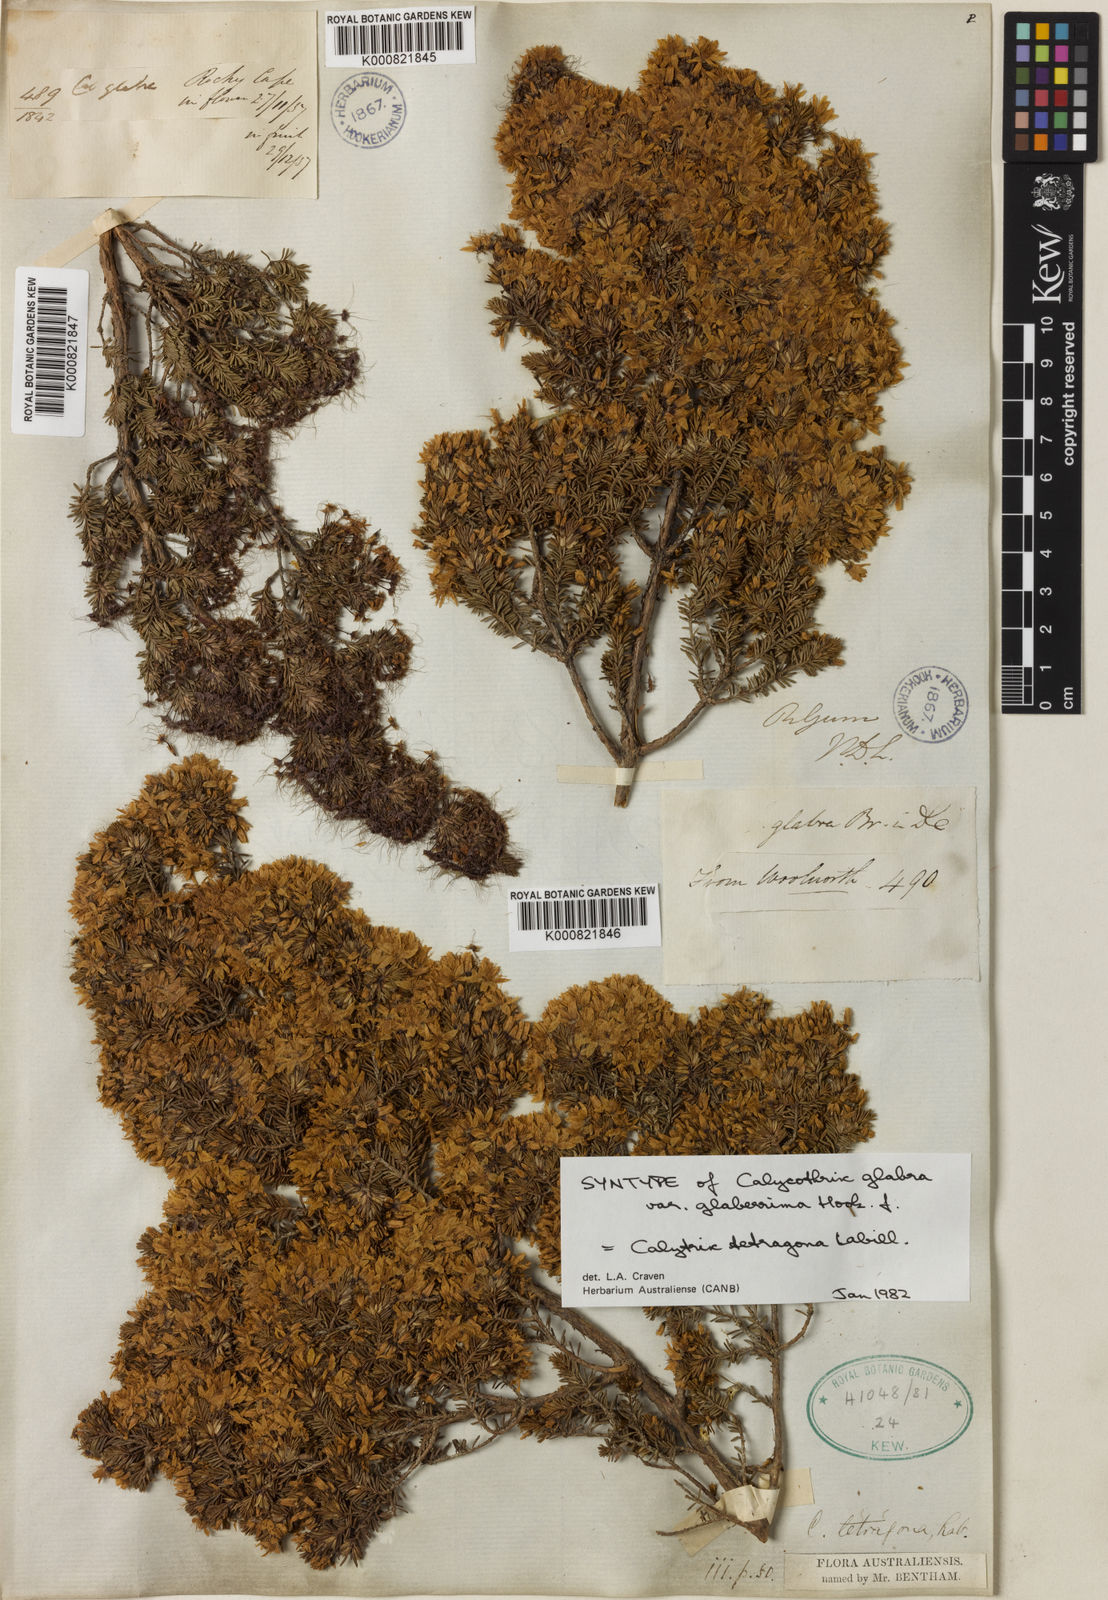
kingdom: Plantae
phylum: Tracheophyta
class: Magnoliopsida
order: Myrtales
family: Myrtaceae
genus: Calytrix
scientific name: Calytrix tetragona
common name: Common fringe myrtle
